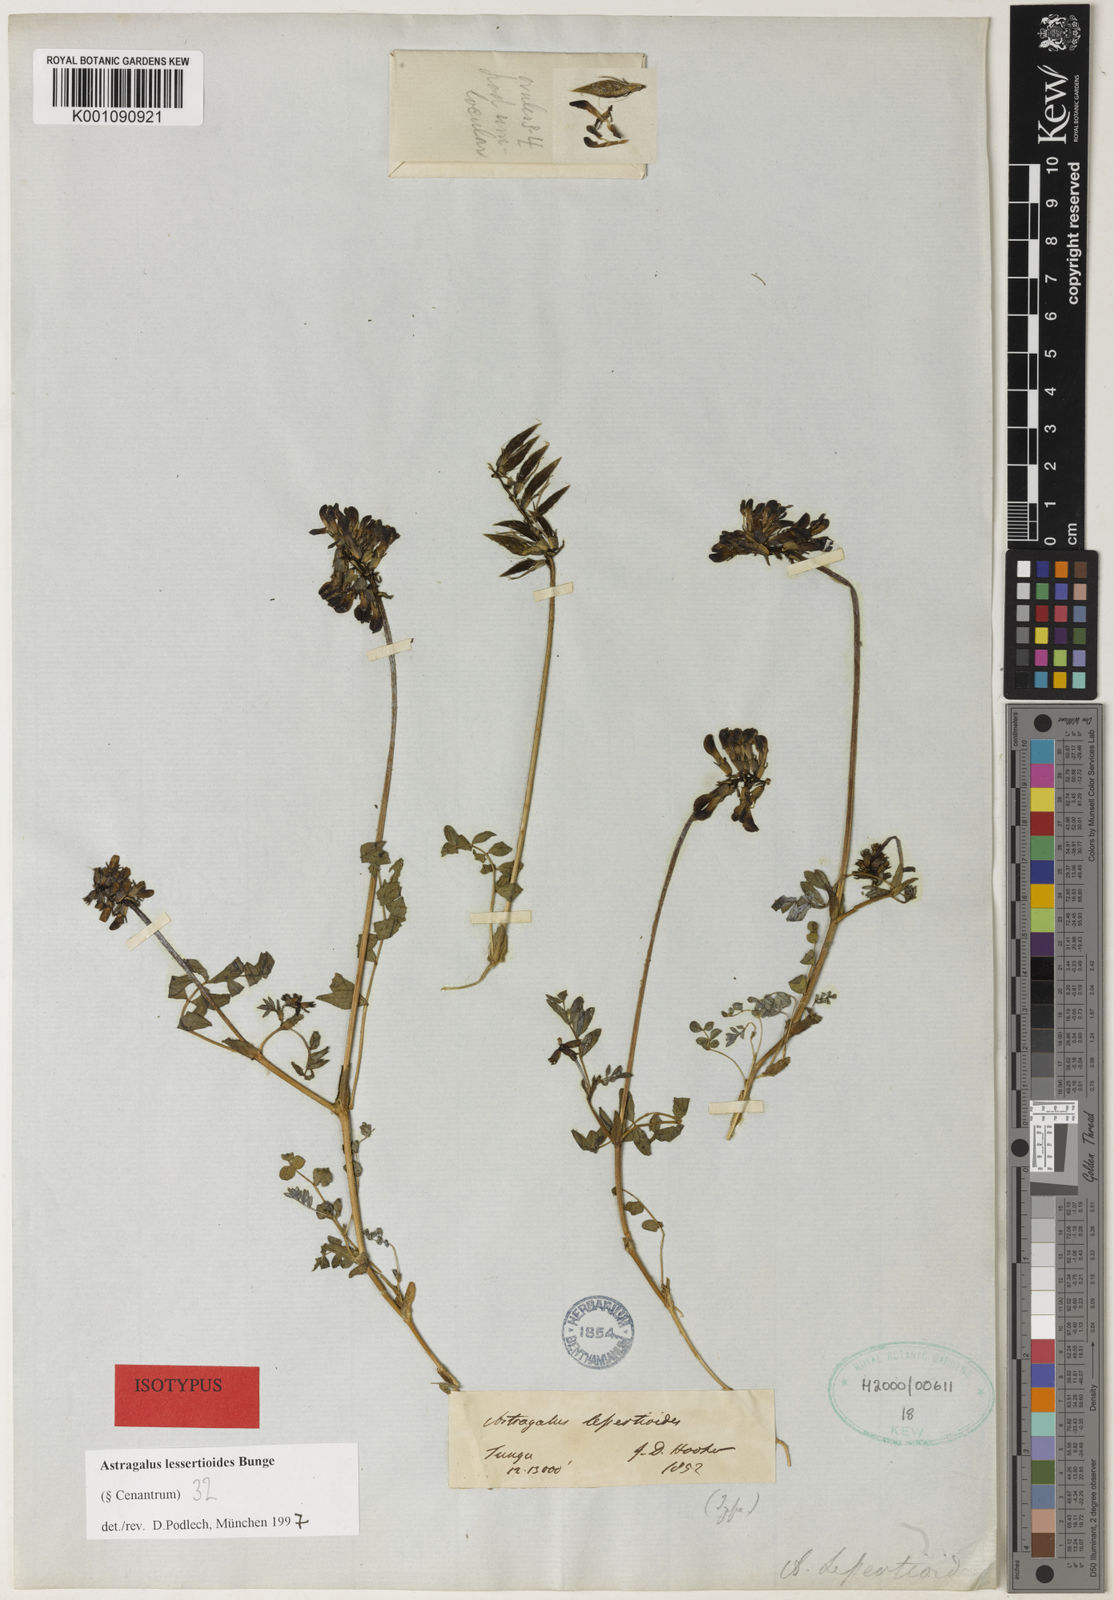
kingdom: Plantae
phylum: Tracheophyta
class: Magnoliopsida
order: Fabales
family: Fabaceae
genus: Astragalus
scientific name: Astragalus
